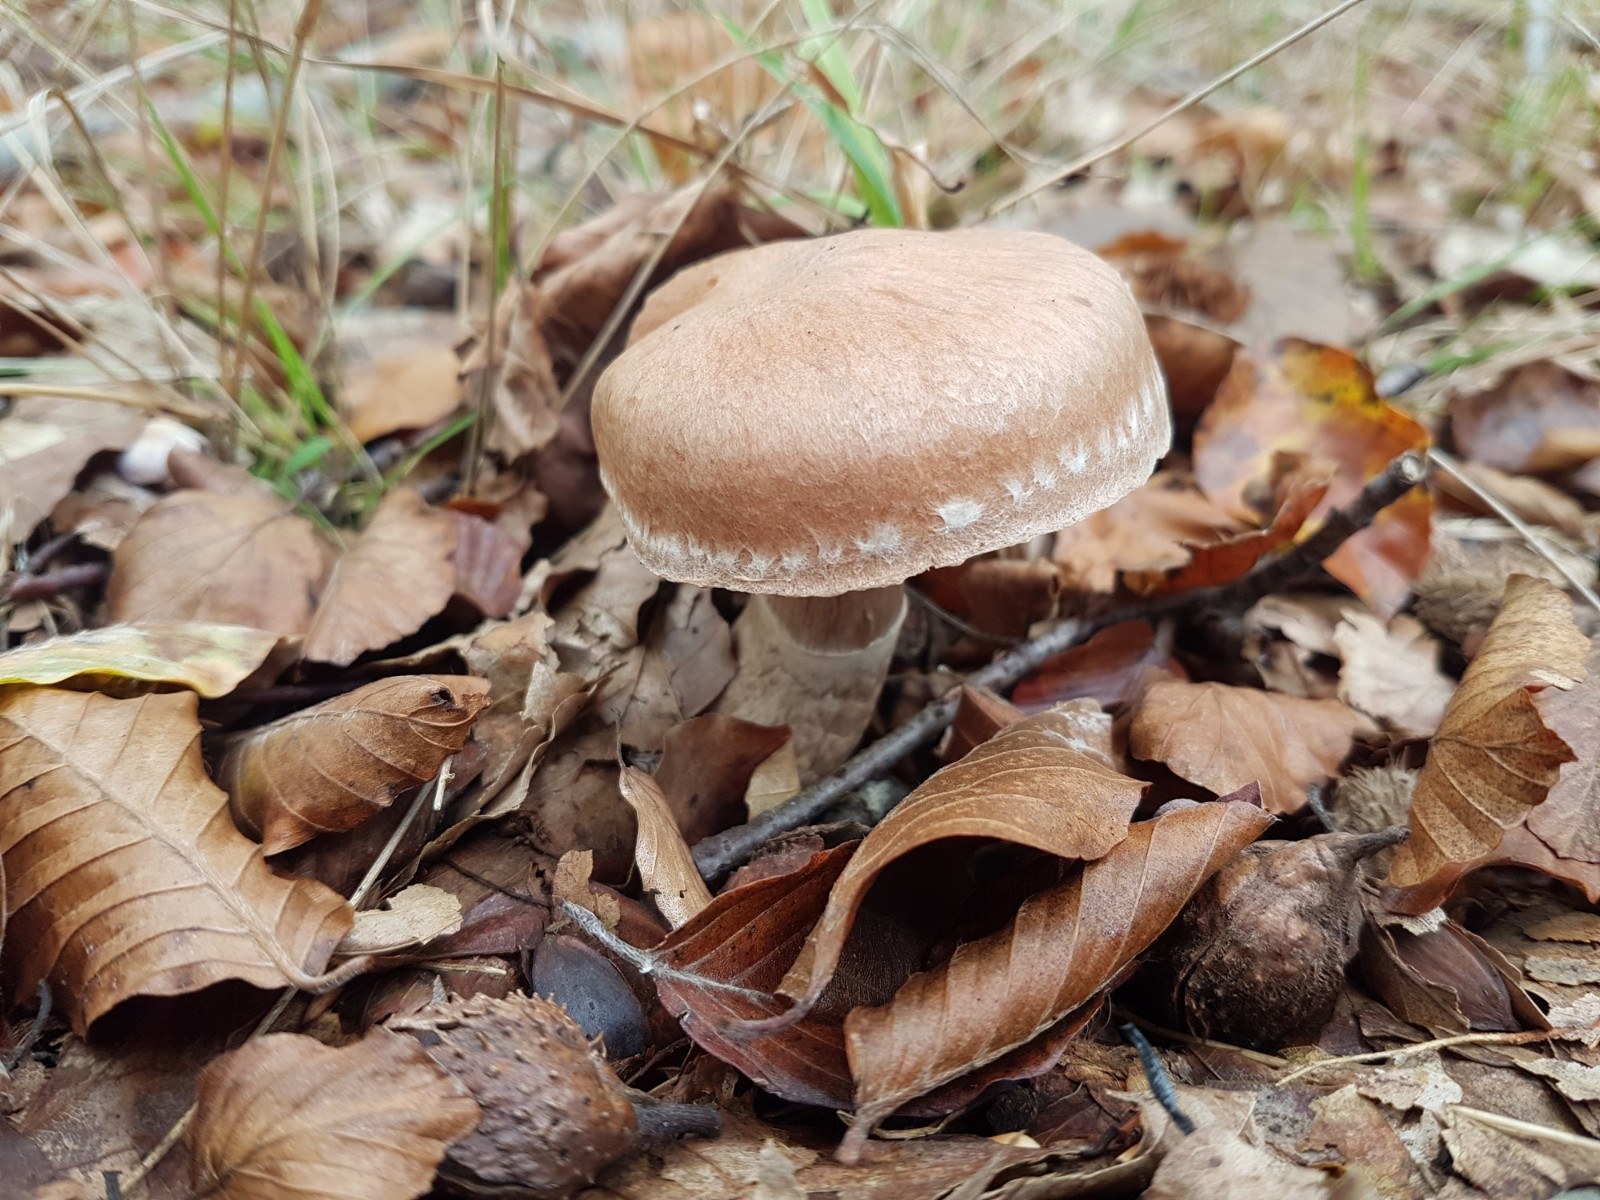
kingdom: Fungi
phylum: Basidiomycota
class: Agaricomycetes
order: Agaricales
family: Cortinariaceae
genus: Cortinarius
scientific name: Cortinarius torvus
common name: champignonagtig slørhat
